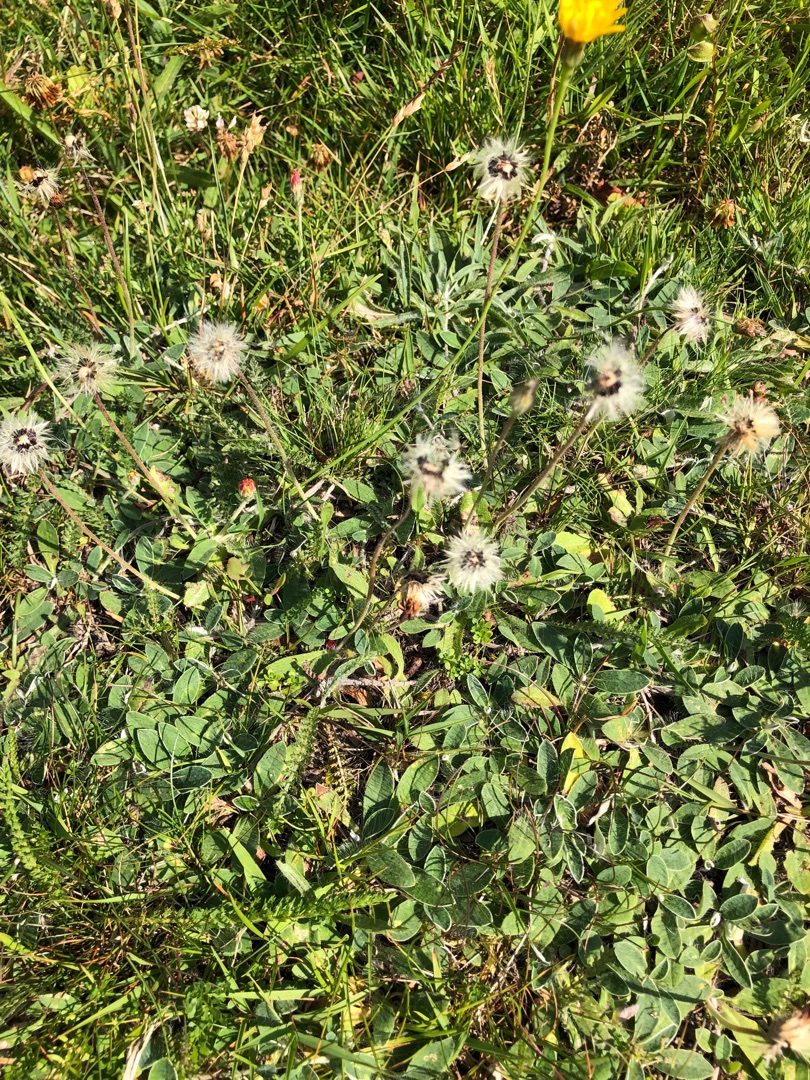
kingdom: Plantae
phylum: Tracheophyta
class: Magnoliopsida
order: Asterales
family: Asteraceae
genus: Pilosella
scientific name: Pilosella officinarum
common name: Håret høgeurt
